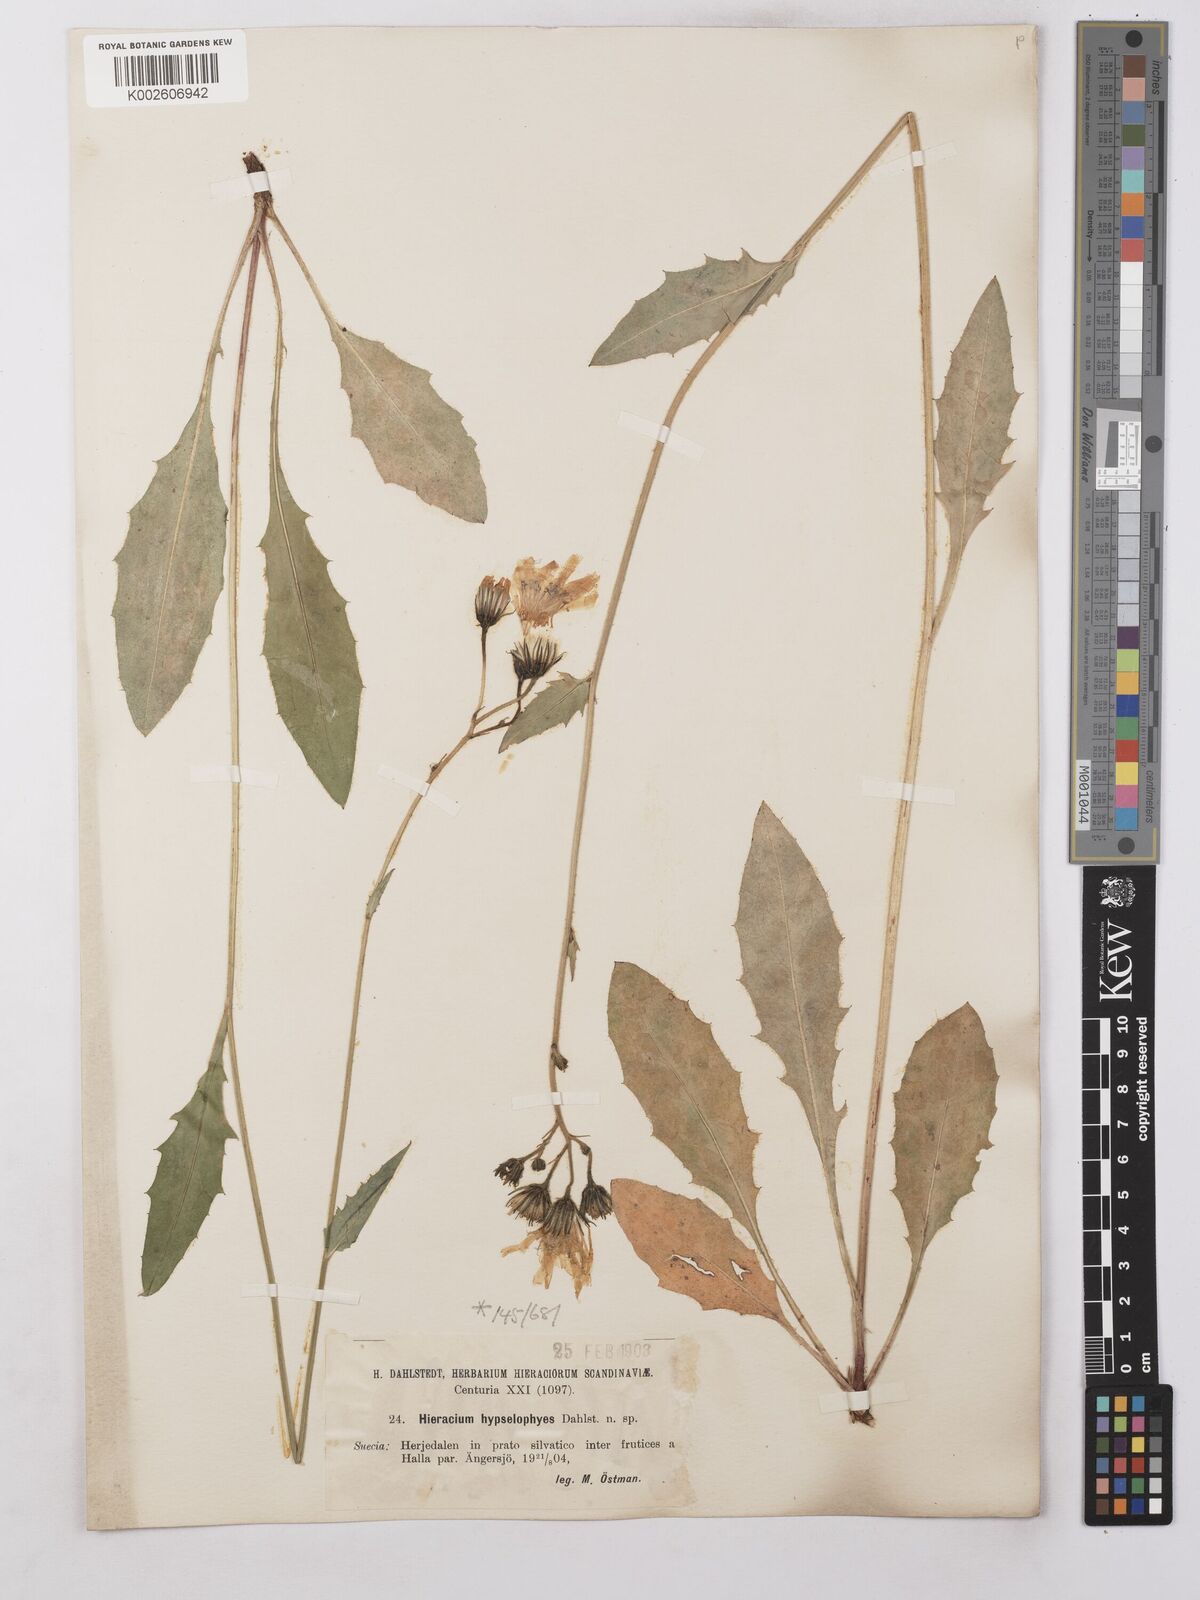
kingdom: Plantae
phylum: Tracheophyta
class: Magnoliopsida
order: Asterales
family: Asteraceae
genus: Hieracium
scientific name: Hieracium levicaule
